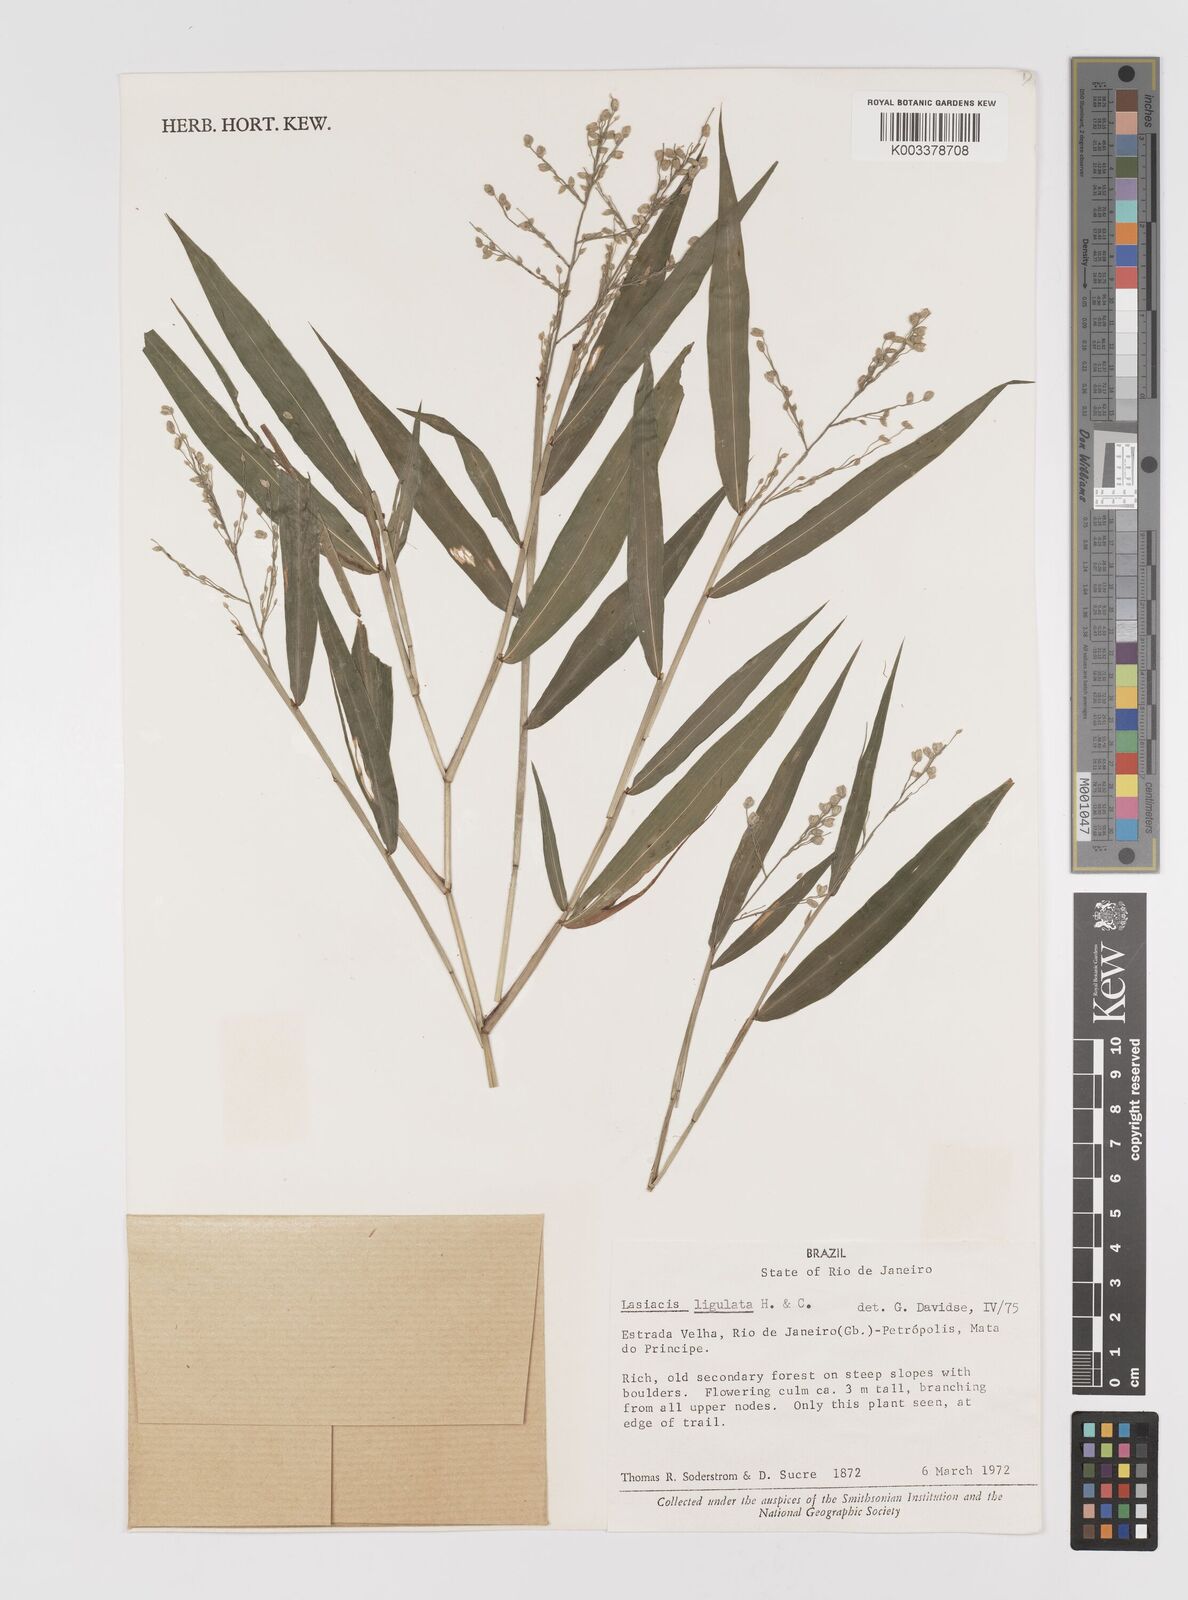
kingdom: Plantae
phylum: Tracheophyta
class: Liliopsida
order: Poales
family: Poaceae
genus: Lasiacis
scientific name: Lasiacis ligulata
